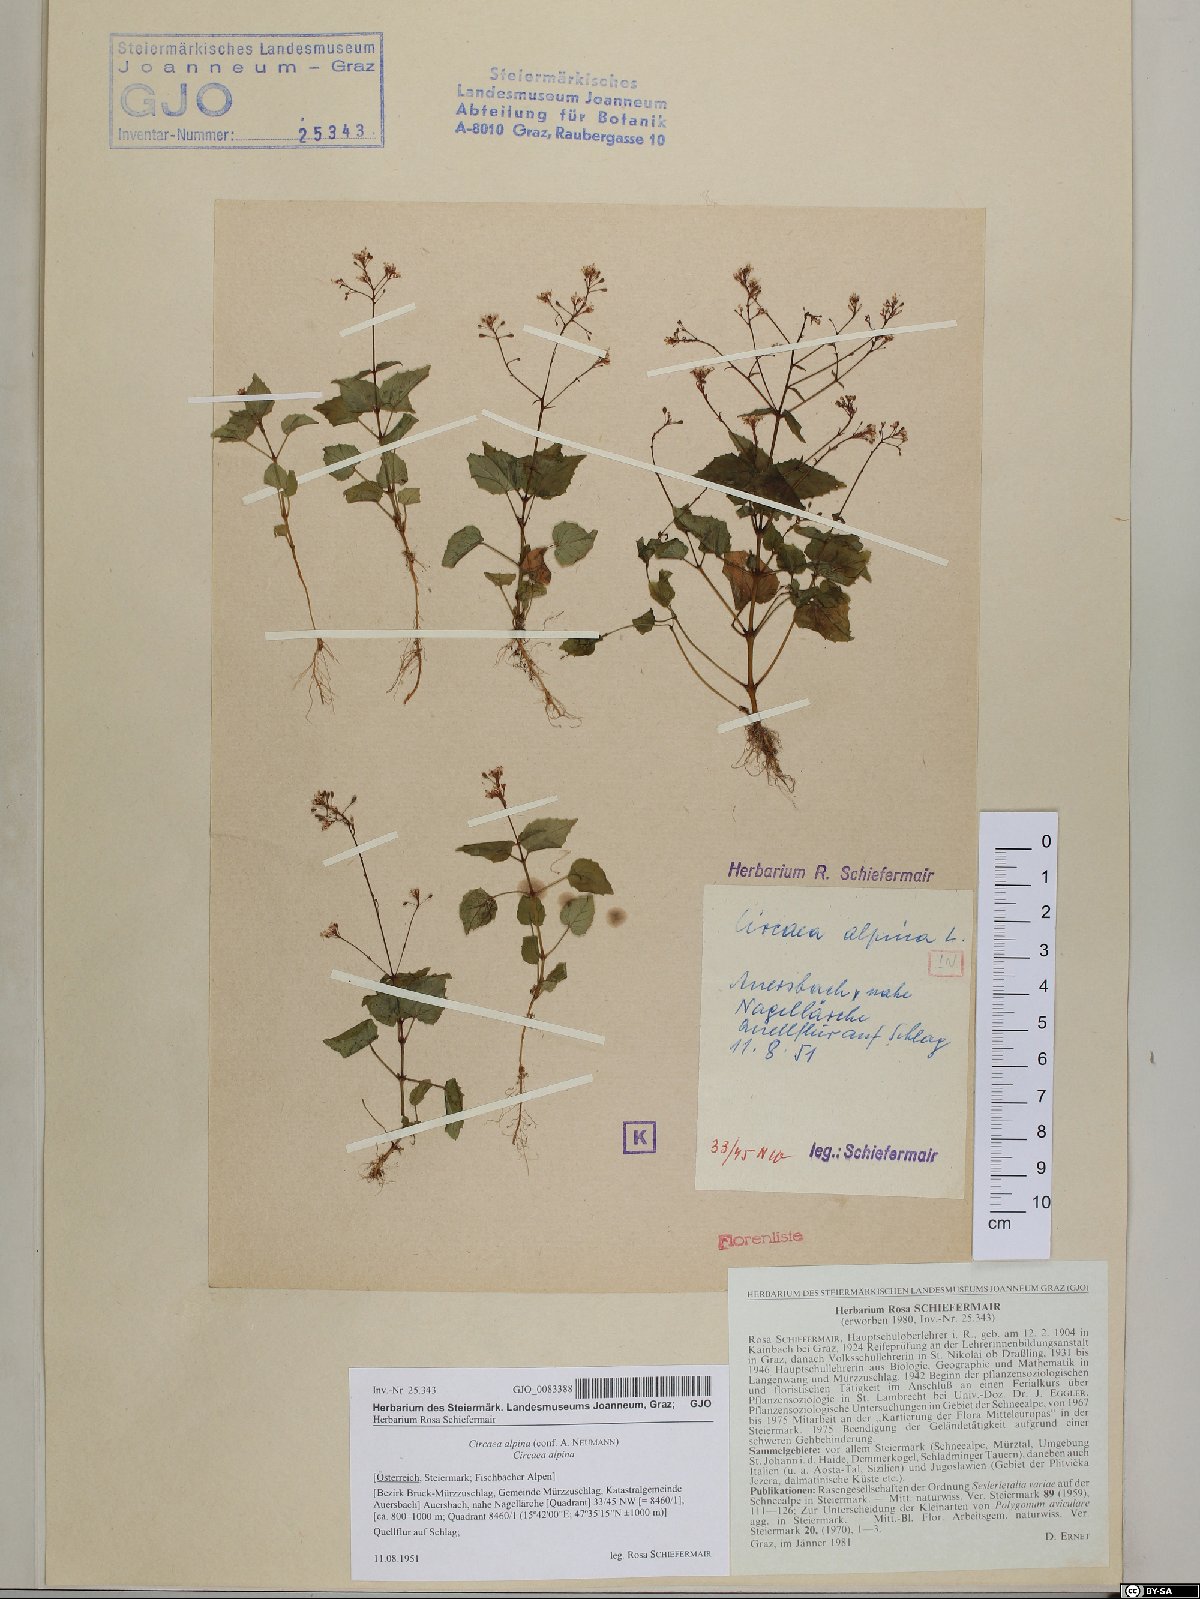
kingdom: Plantae
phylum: Tracheophyta
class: Magnoliopsida
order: Myrtales
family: Onagraceae
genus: Circaea
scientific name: Circaea alpina
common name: Alpine enchanter's-nightshade
